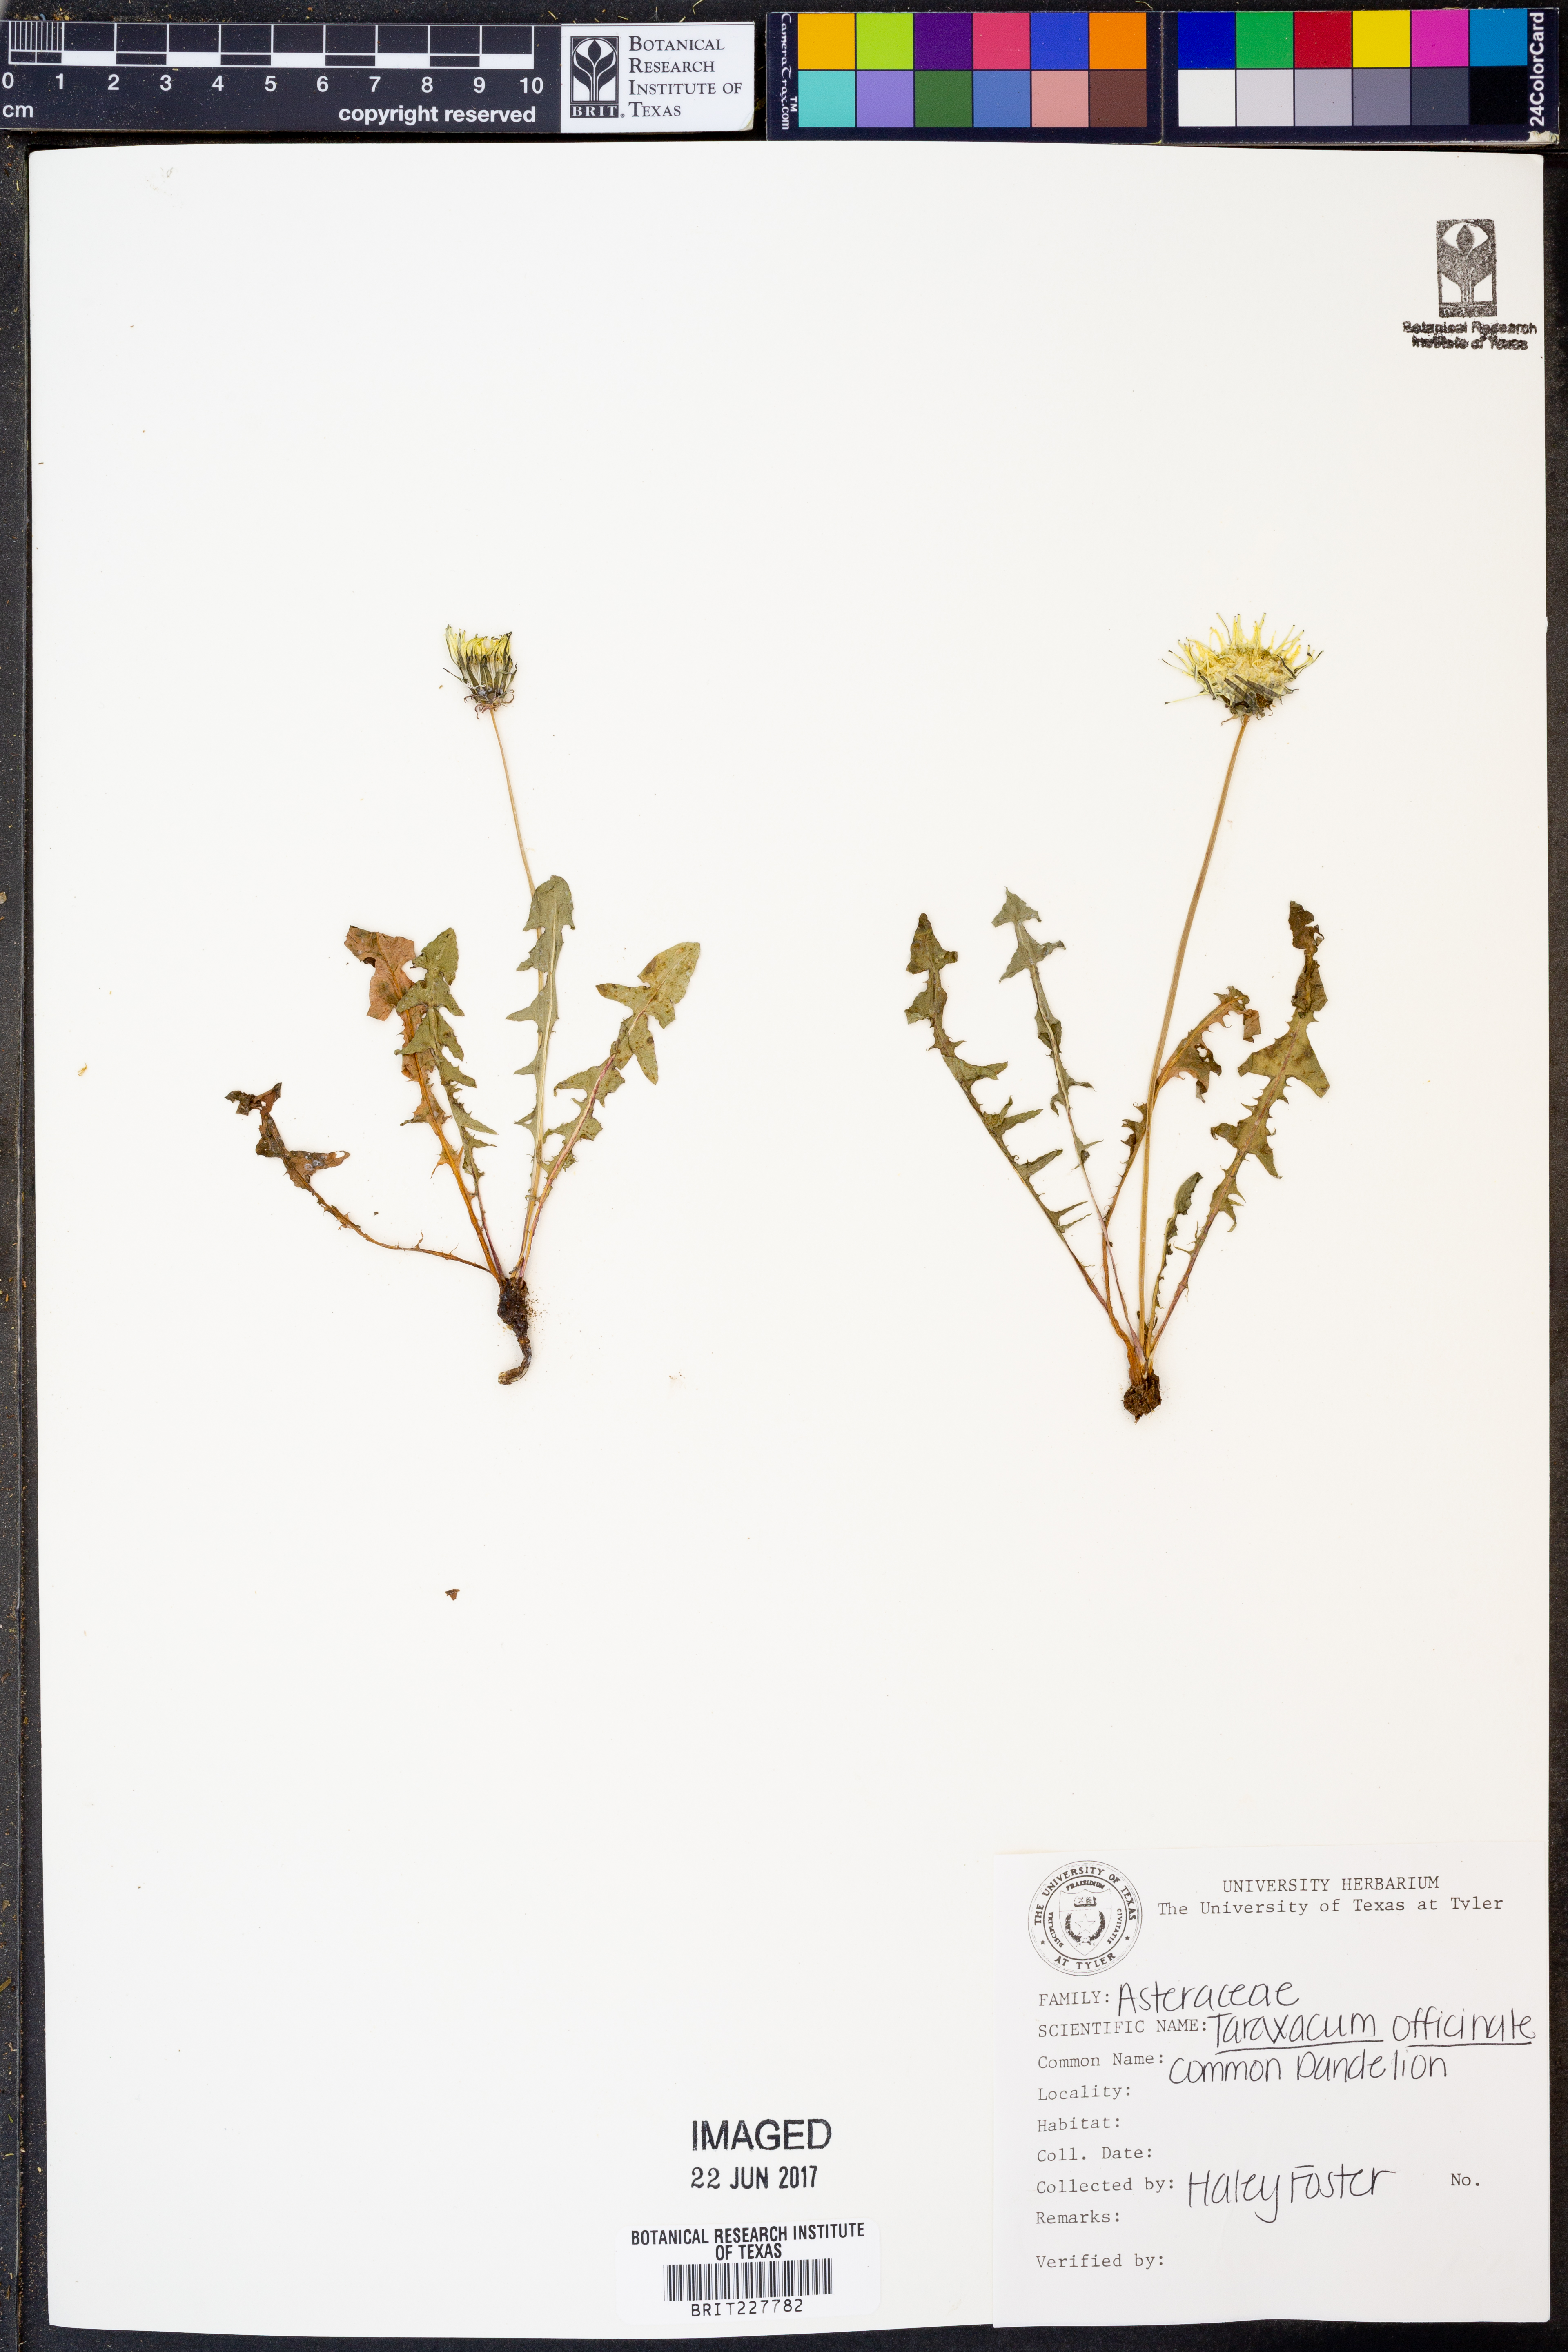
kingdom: Plantae
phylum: Tracheophyta
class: Magnoliopsida
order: Asterales
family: Asteraceae
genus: Taraxacum
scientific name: Taraxacum officinale
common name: Common dandelion
